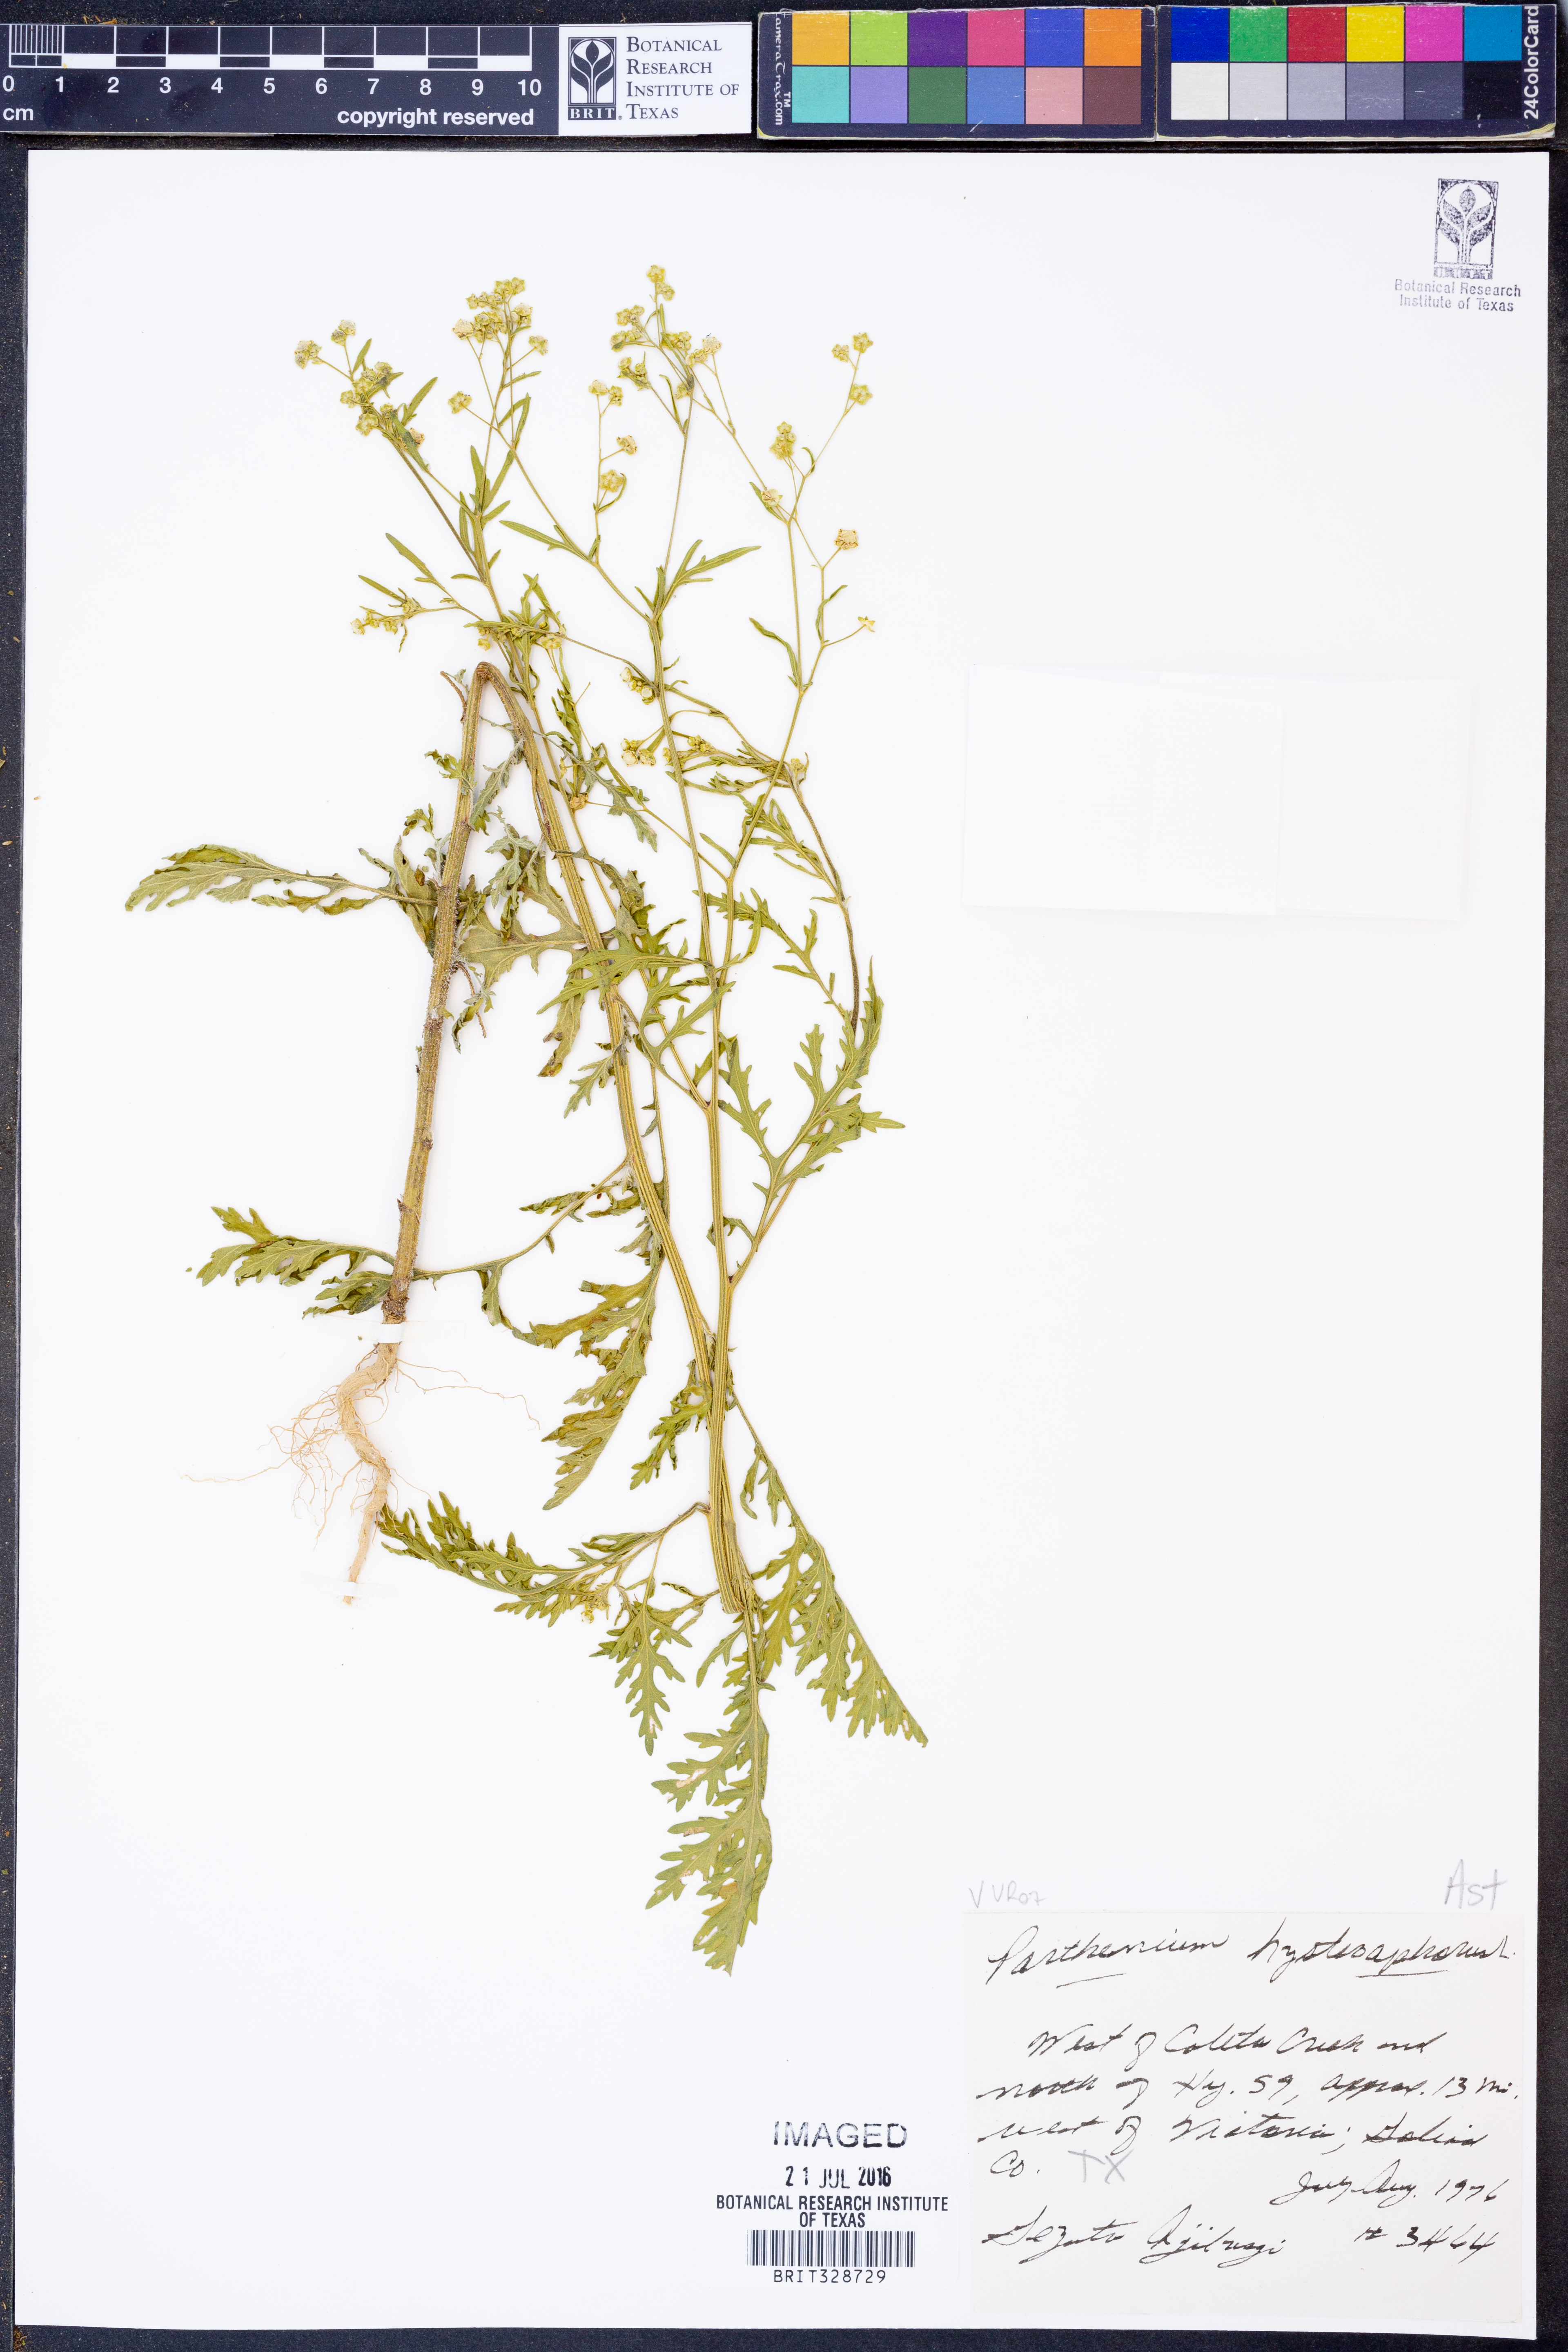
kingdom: Plantae
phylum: Tracheophyta
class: Magnoliopsida
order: Asterales
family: Asteraceae
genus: Parthenium
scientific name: Parthenium hysterophorus
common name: Santa maria feverfew
